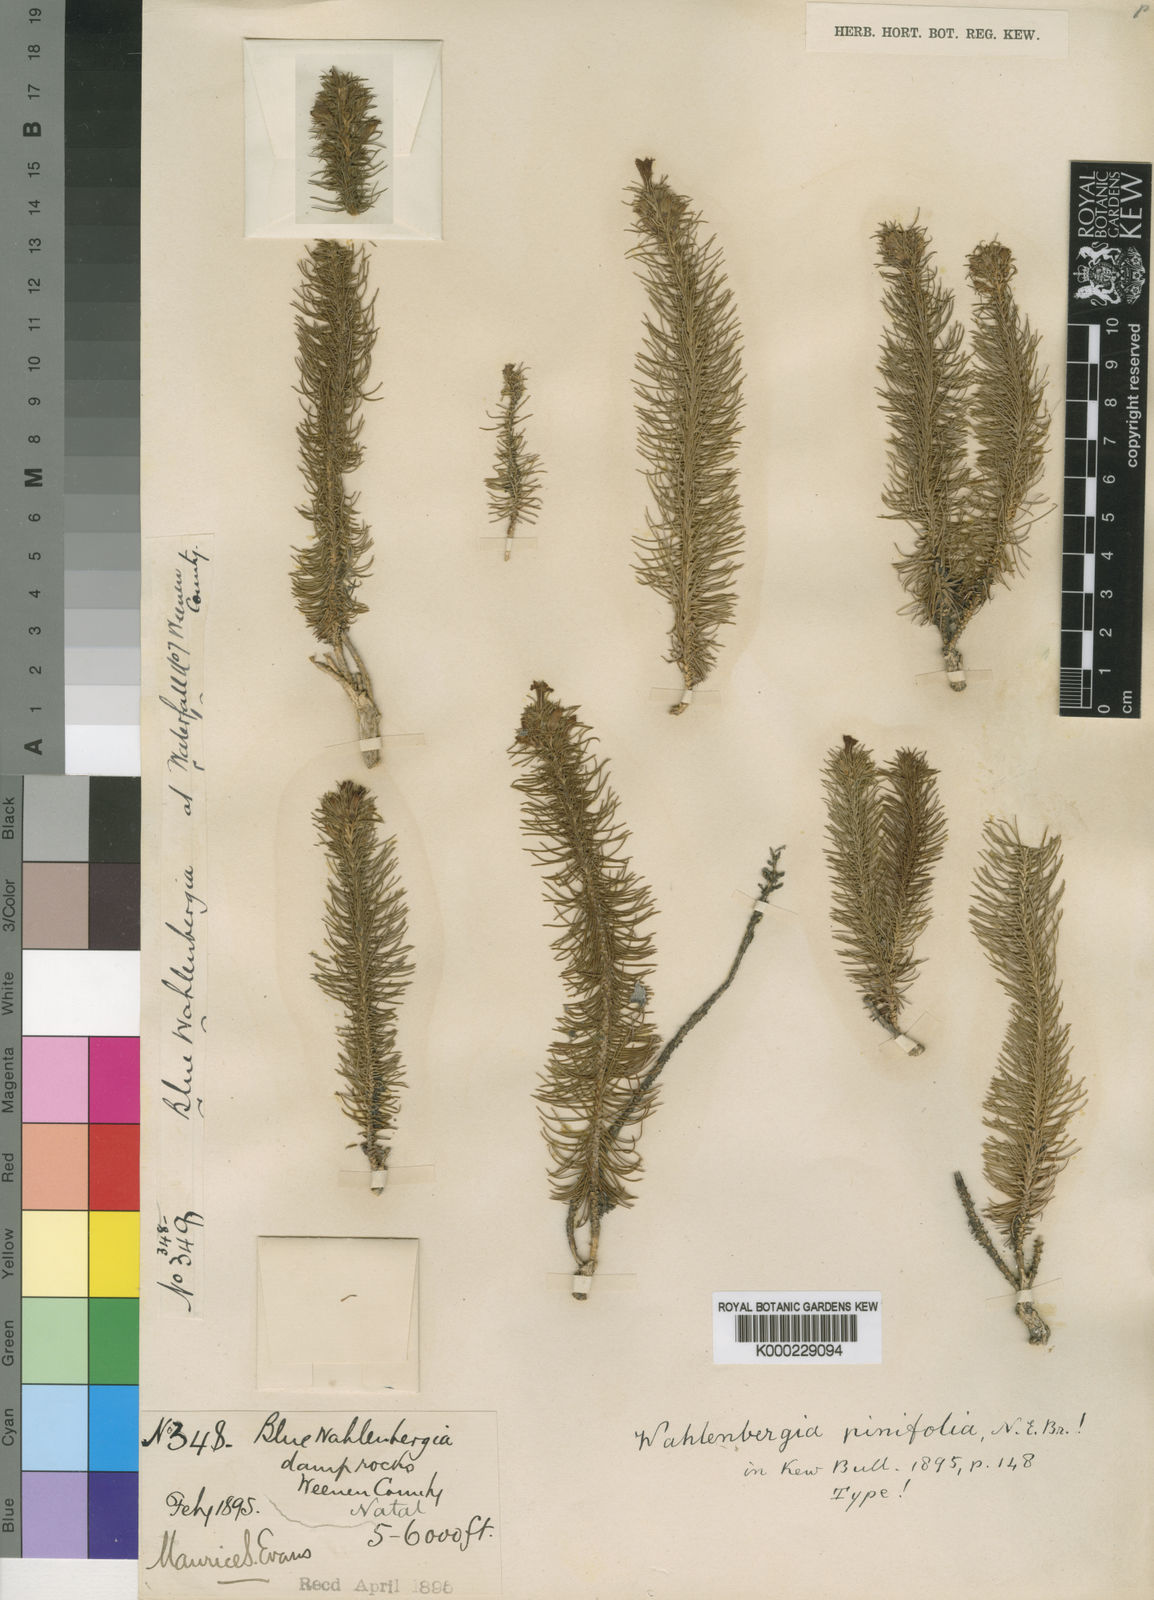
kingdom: Plantae
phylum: Tracheophyta
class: Magnoliopsida
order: Asterales
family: Campanulaceae
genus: Wahlenbergia
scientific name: Wahlenbergia pinifolia
